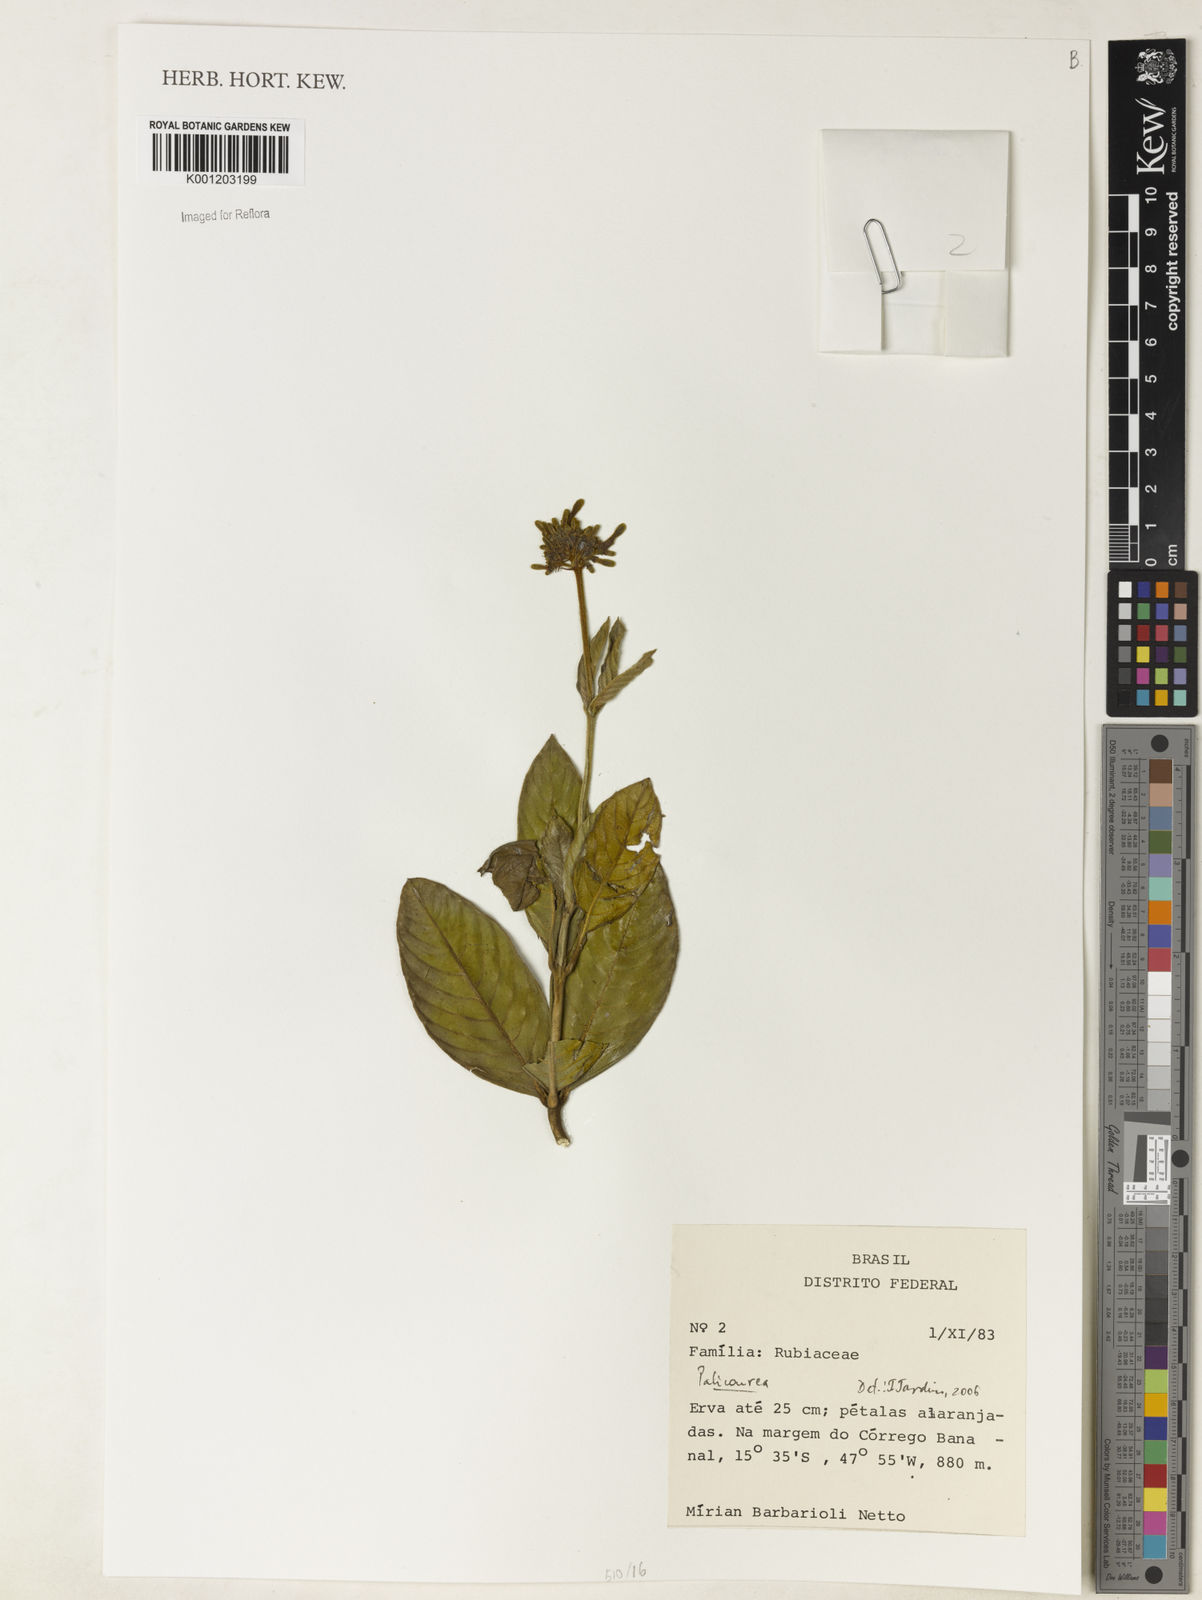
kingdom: Plantae
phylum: Tracheophyta
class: Magnoliopsida
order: Gentianales
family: Rubiaceae
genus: Palicourea
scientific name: Palicourea
